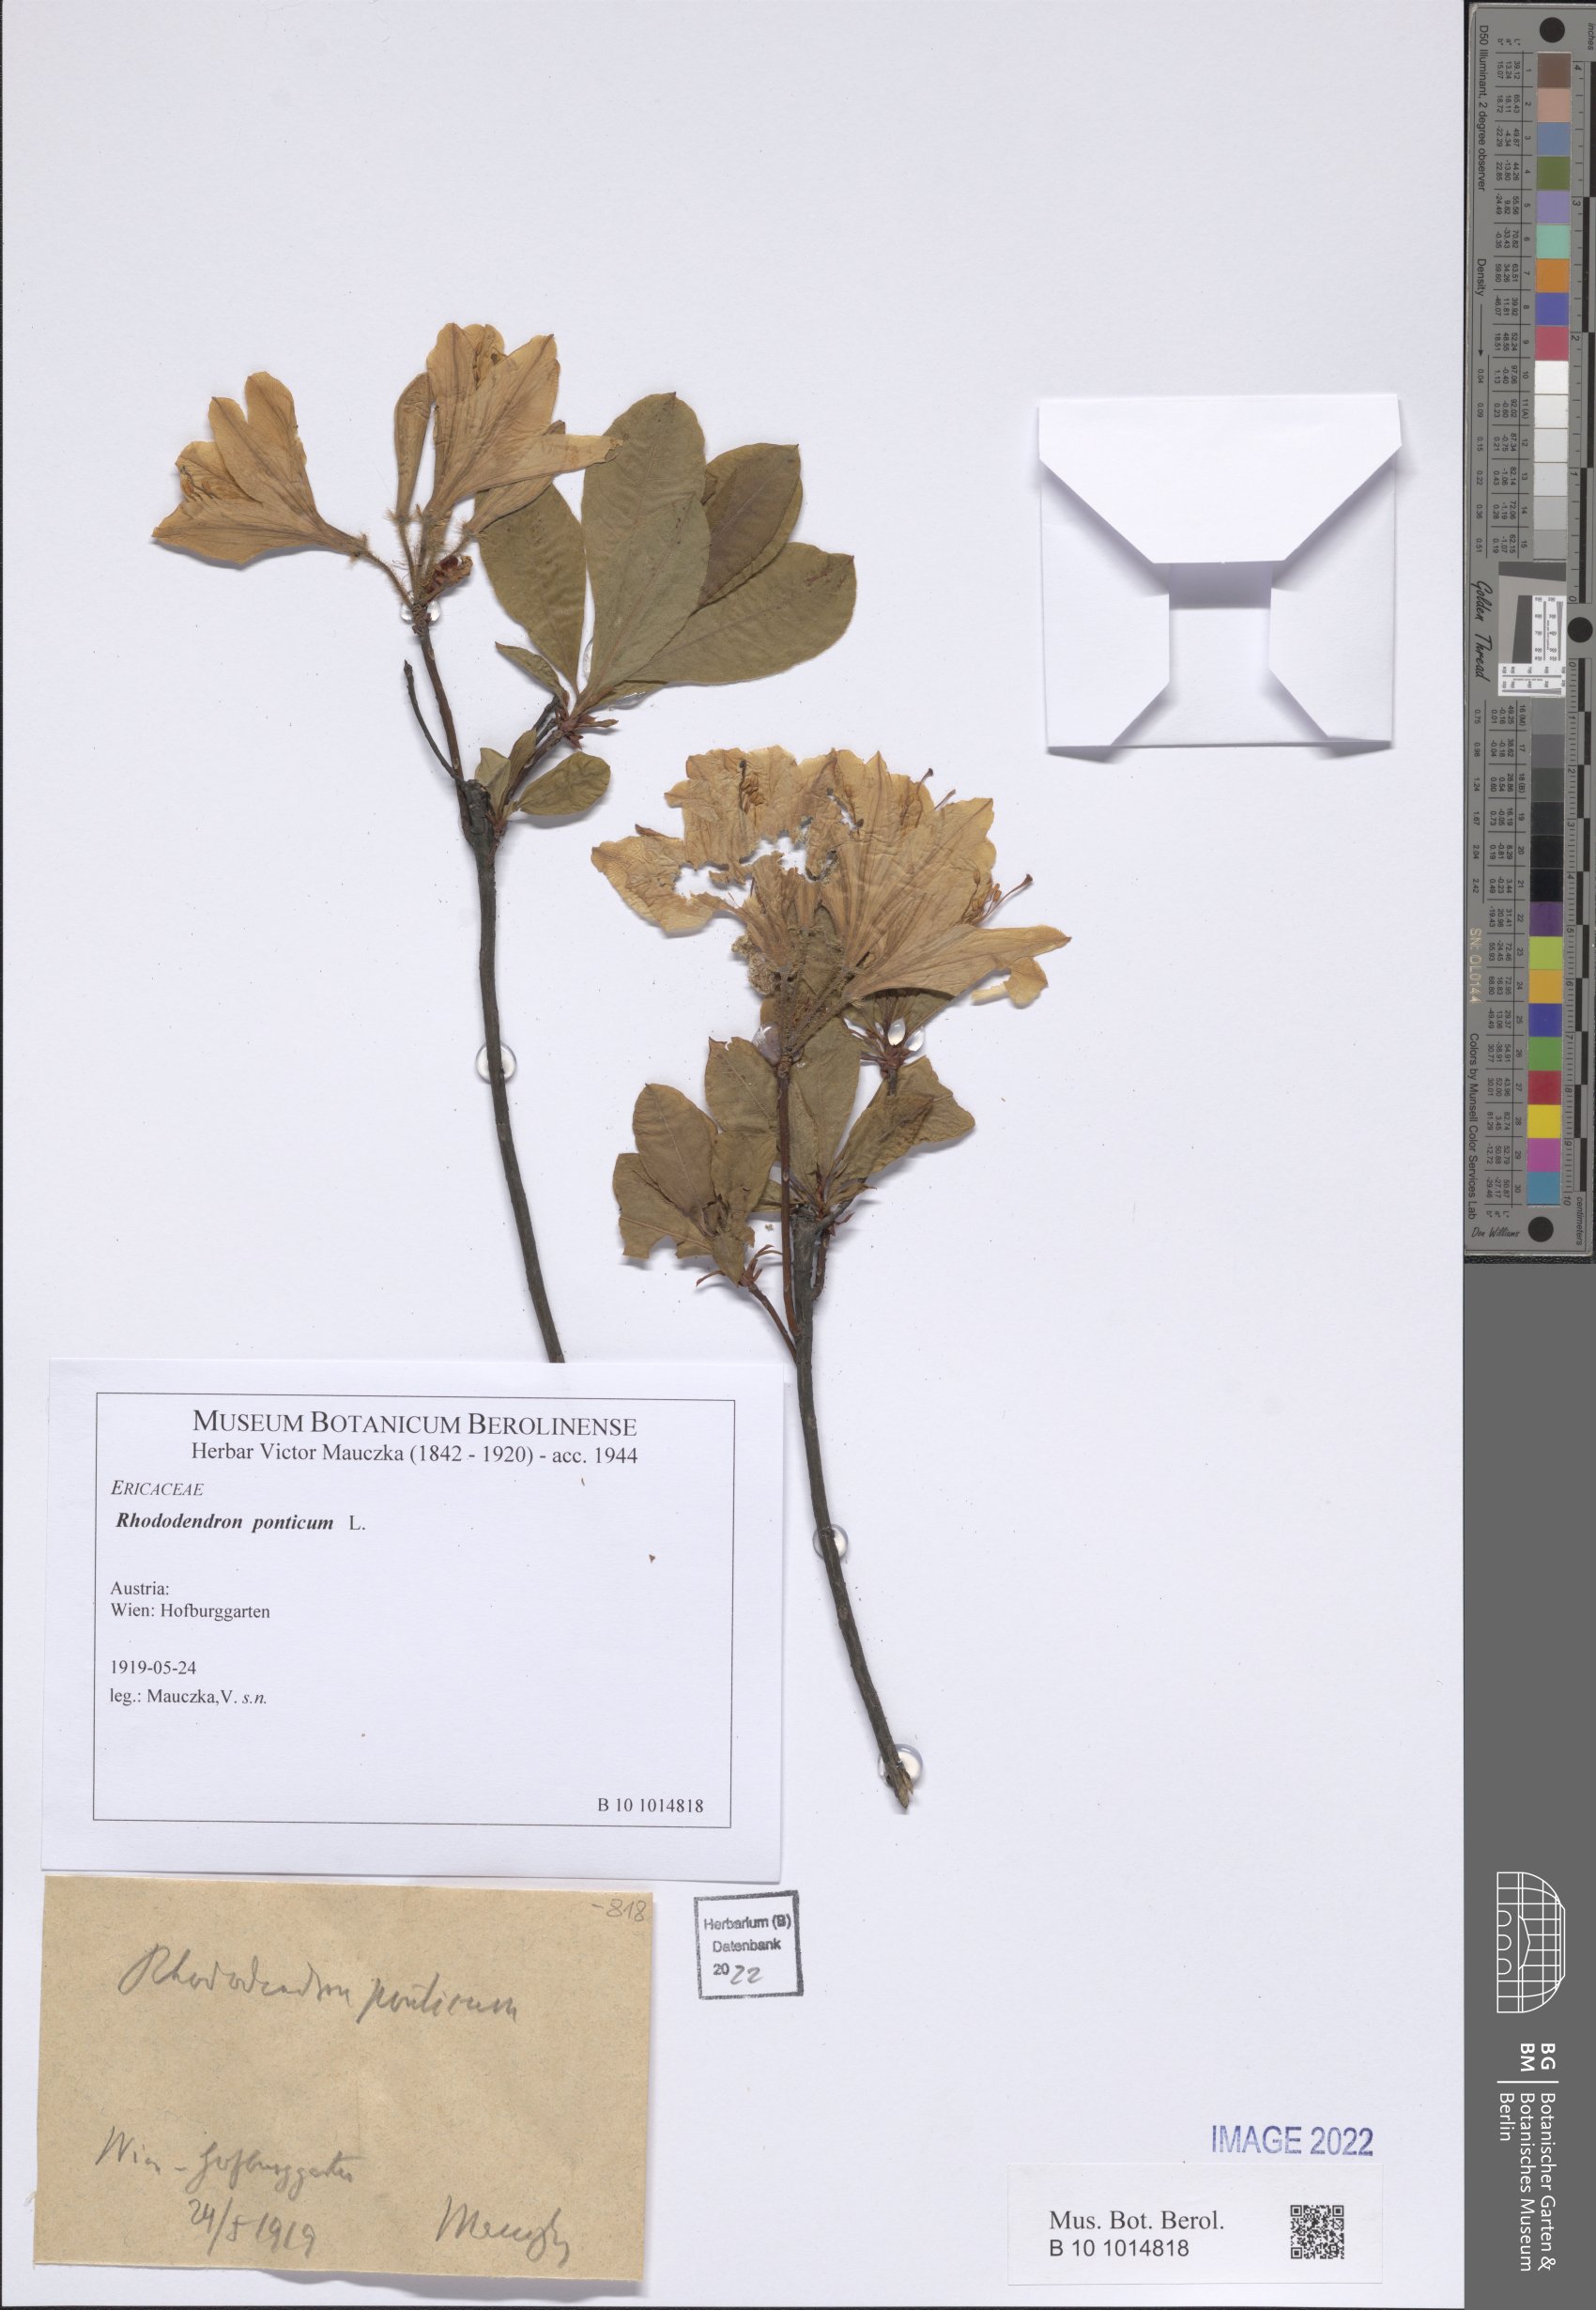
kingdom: Plantae
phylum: Tracheophyta
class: Magnoliopsida
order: Ericales
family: Ericaceae
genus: Rhododendron
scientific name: Rhododendron ponticum
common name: Rhododendron
